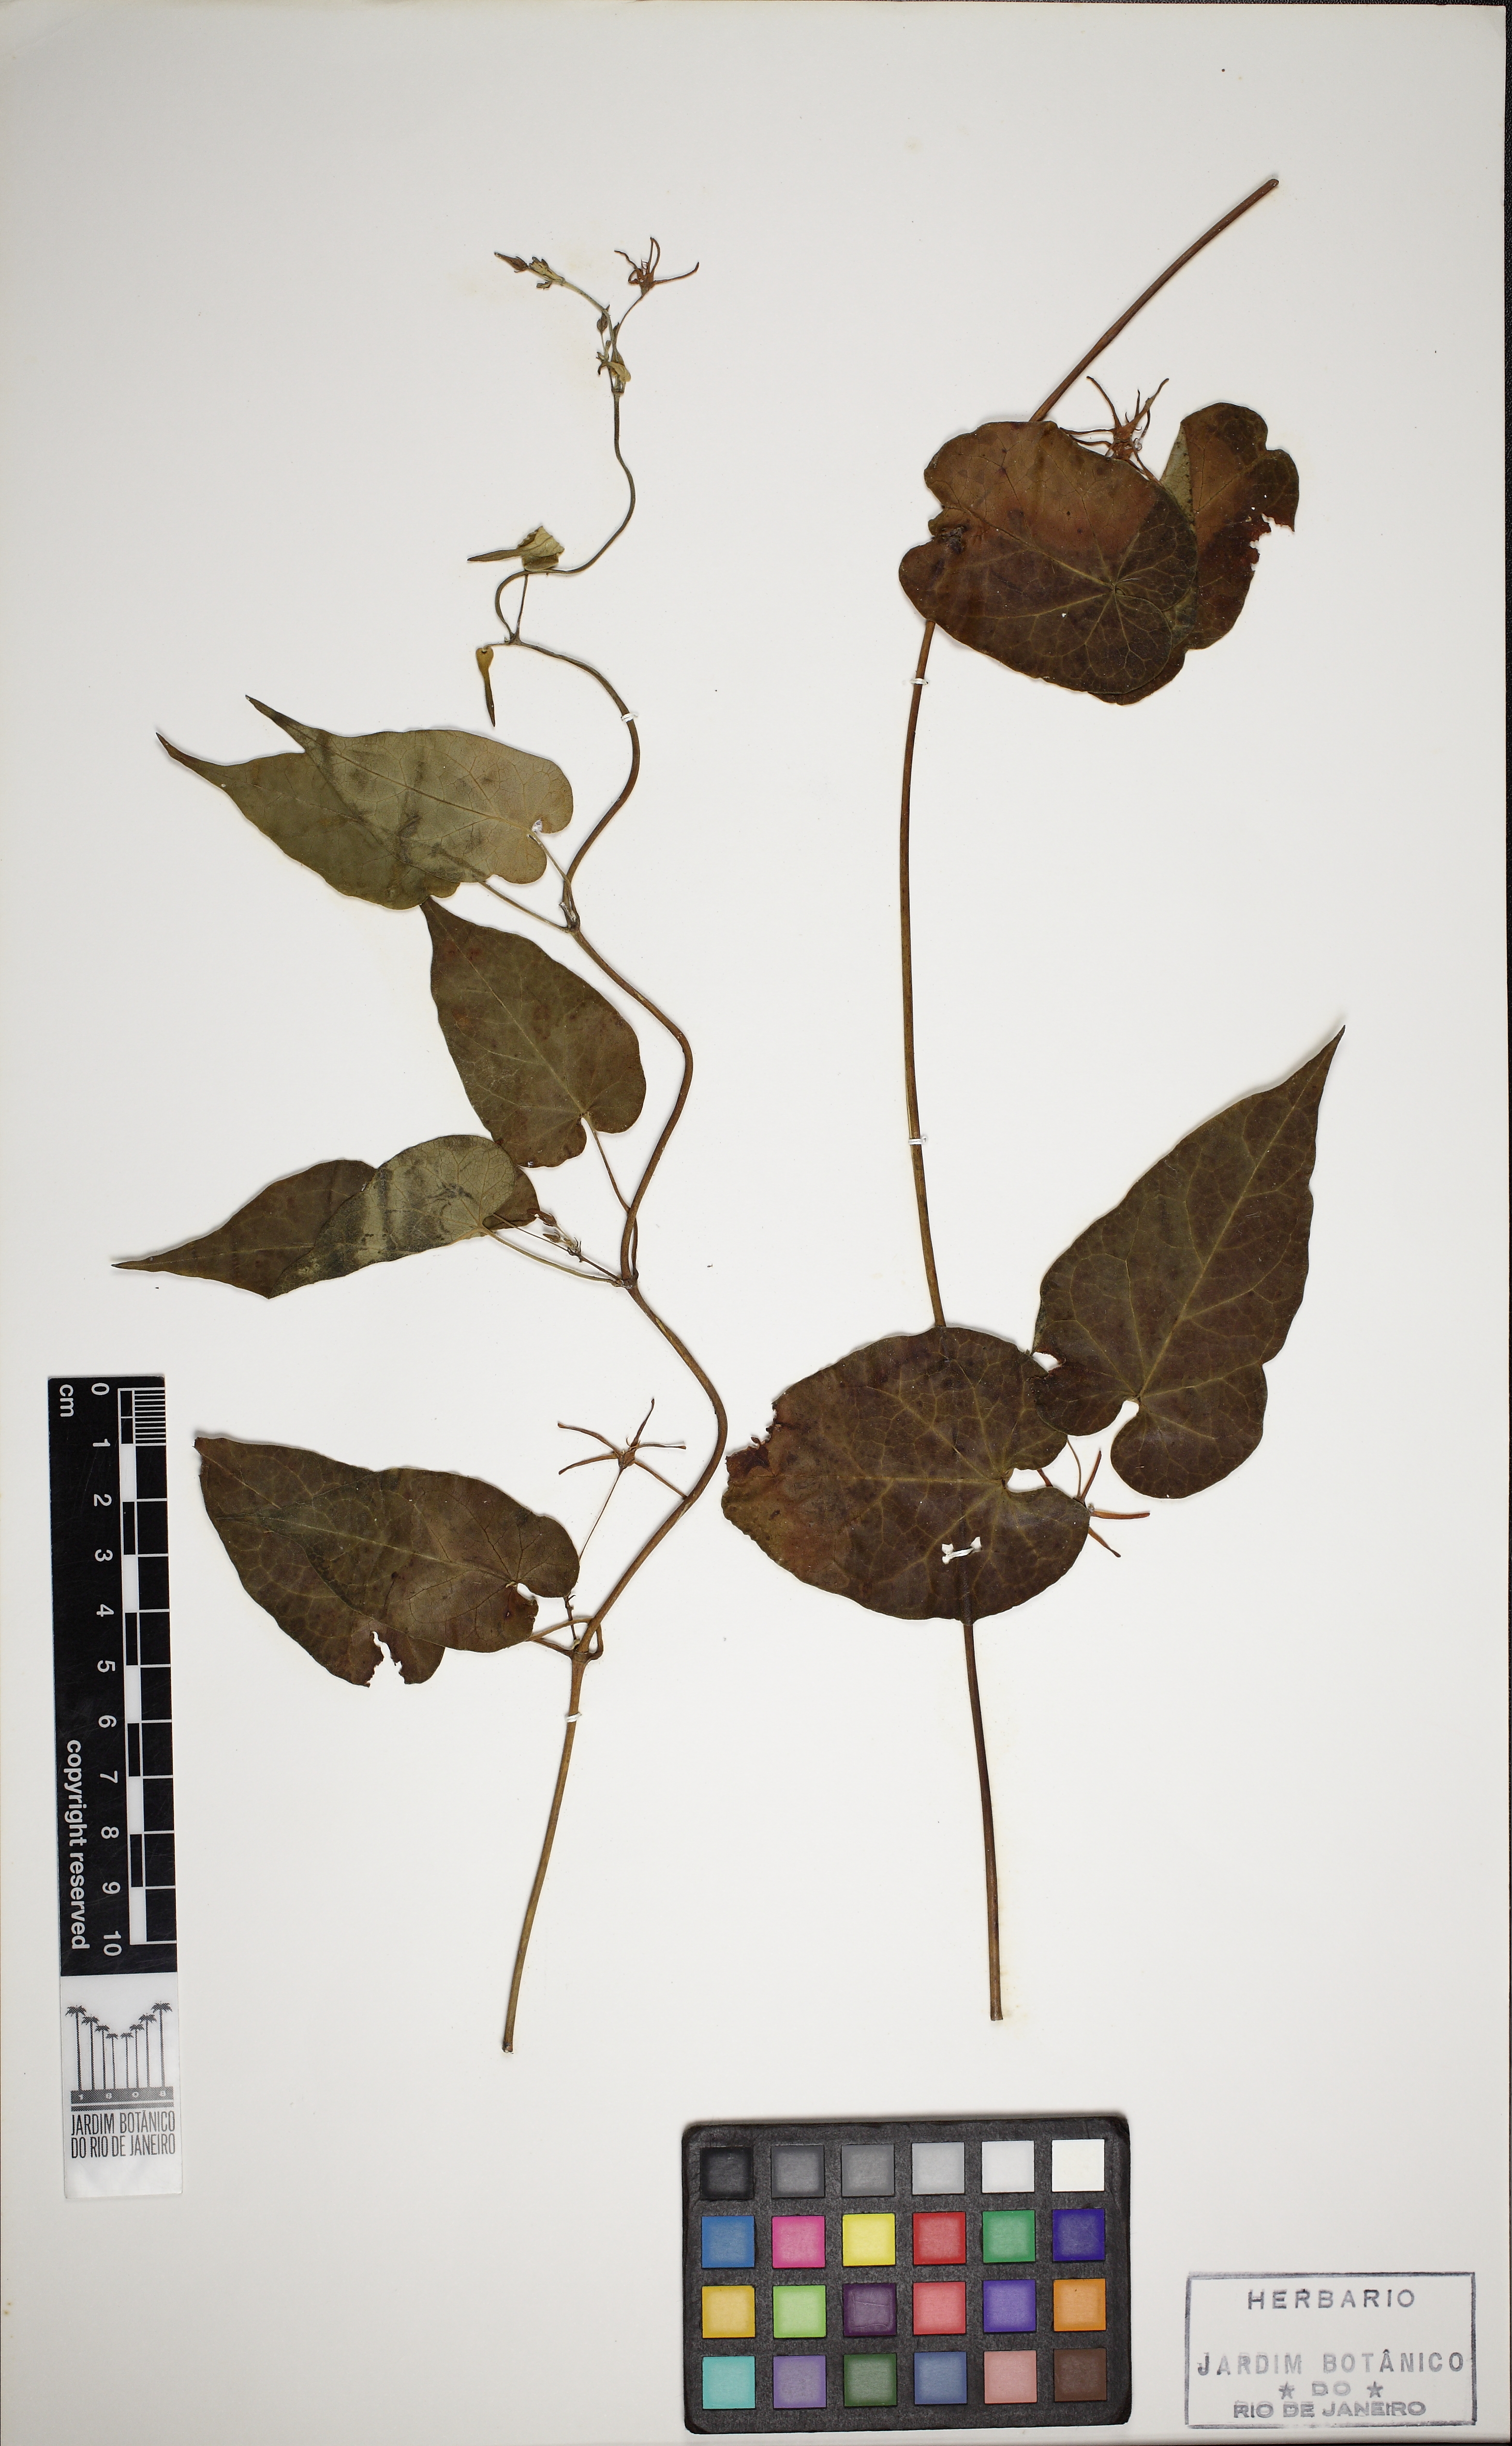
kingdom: Plantae
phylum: Tracheophyta
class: Magnoliopsida
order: Gentianales
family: Apocynaceae
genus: Oxypetalum
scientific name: Oxypetalum cordifolium
